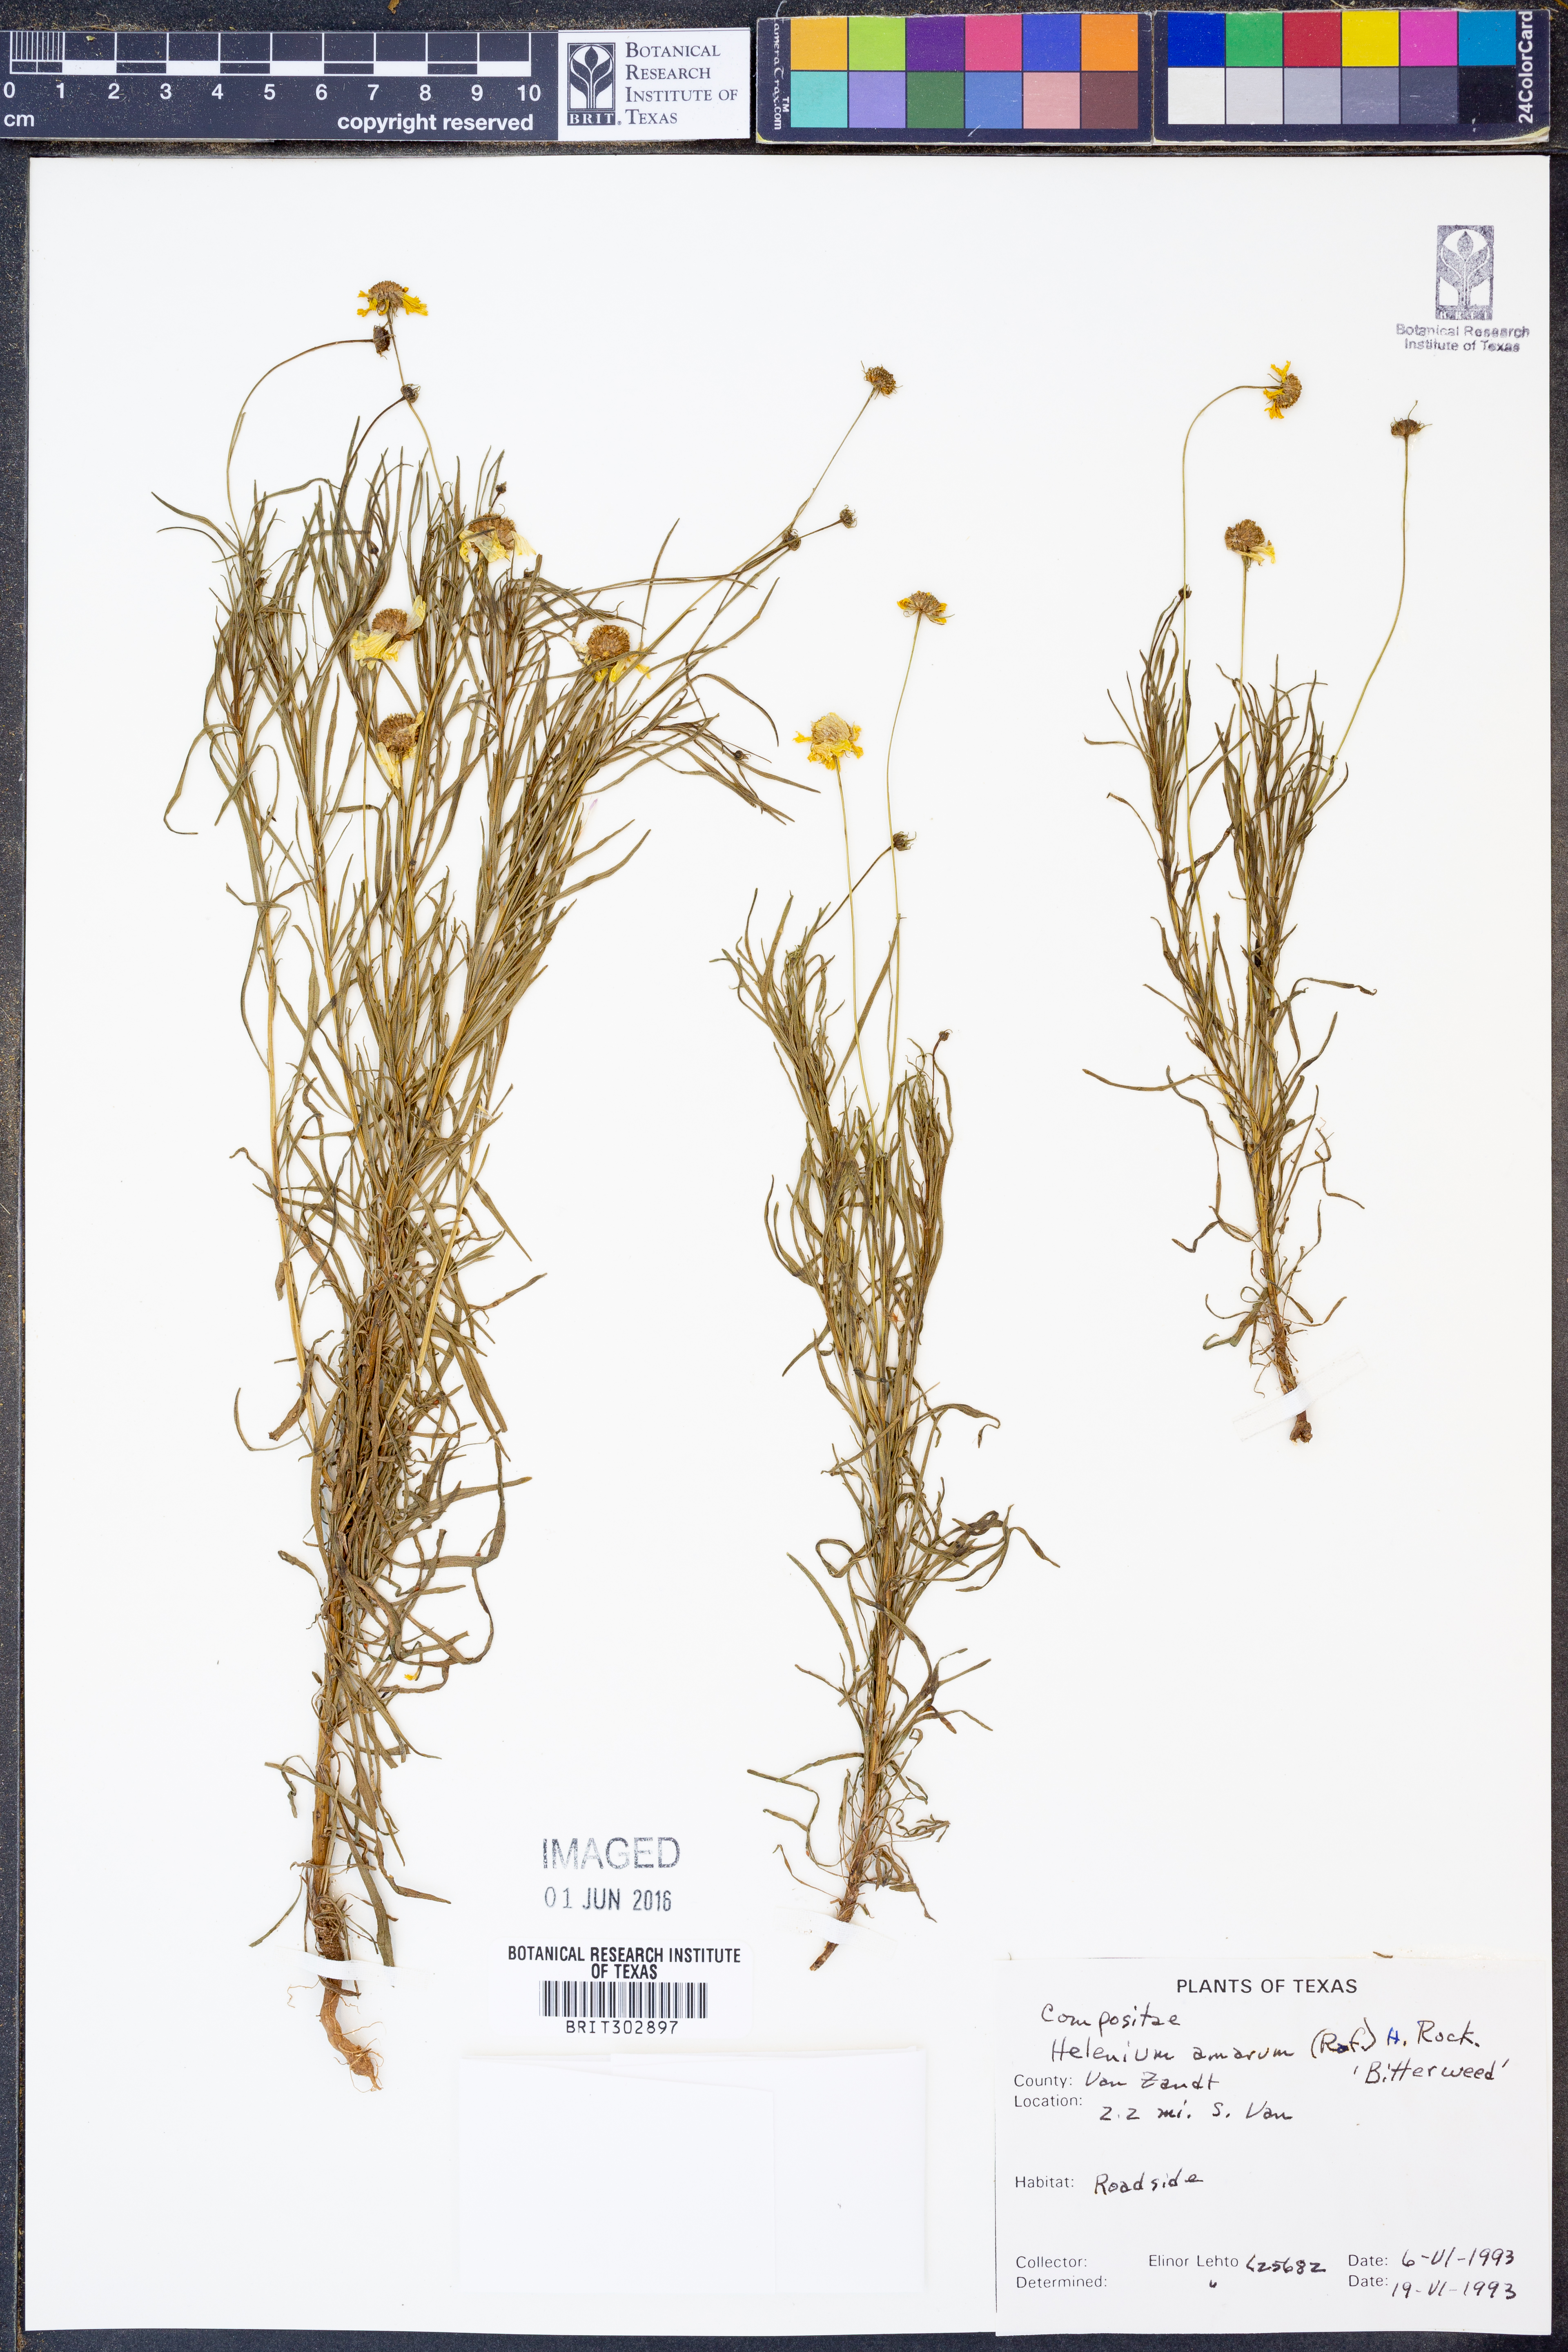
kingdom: Plantae
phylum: Tracheophyta
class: Magnoliopsida
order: Asterales
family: Asteraceae
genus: Helenium
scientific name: Helenium amarum
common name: Bitter sneezeweed
